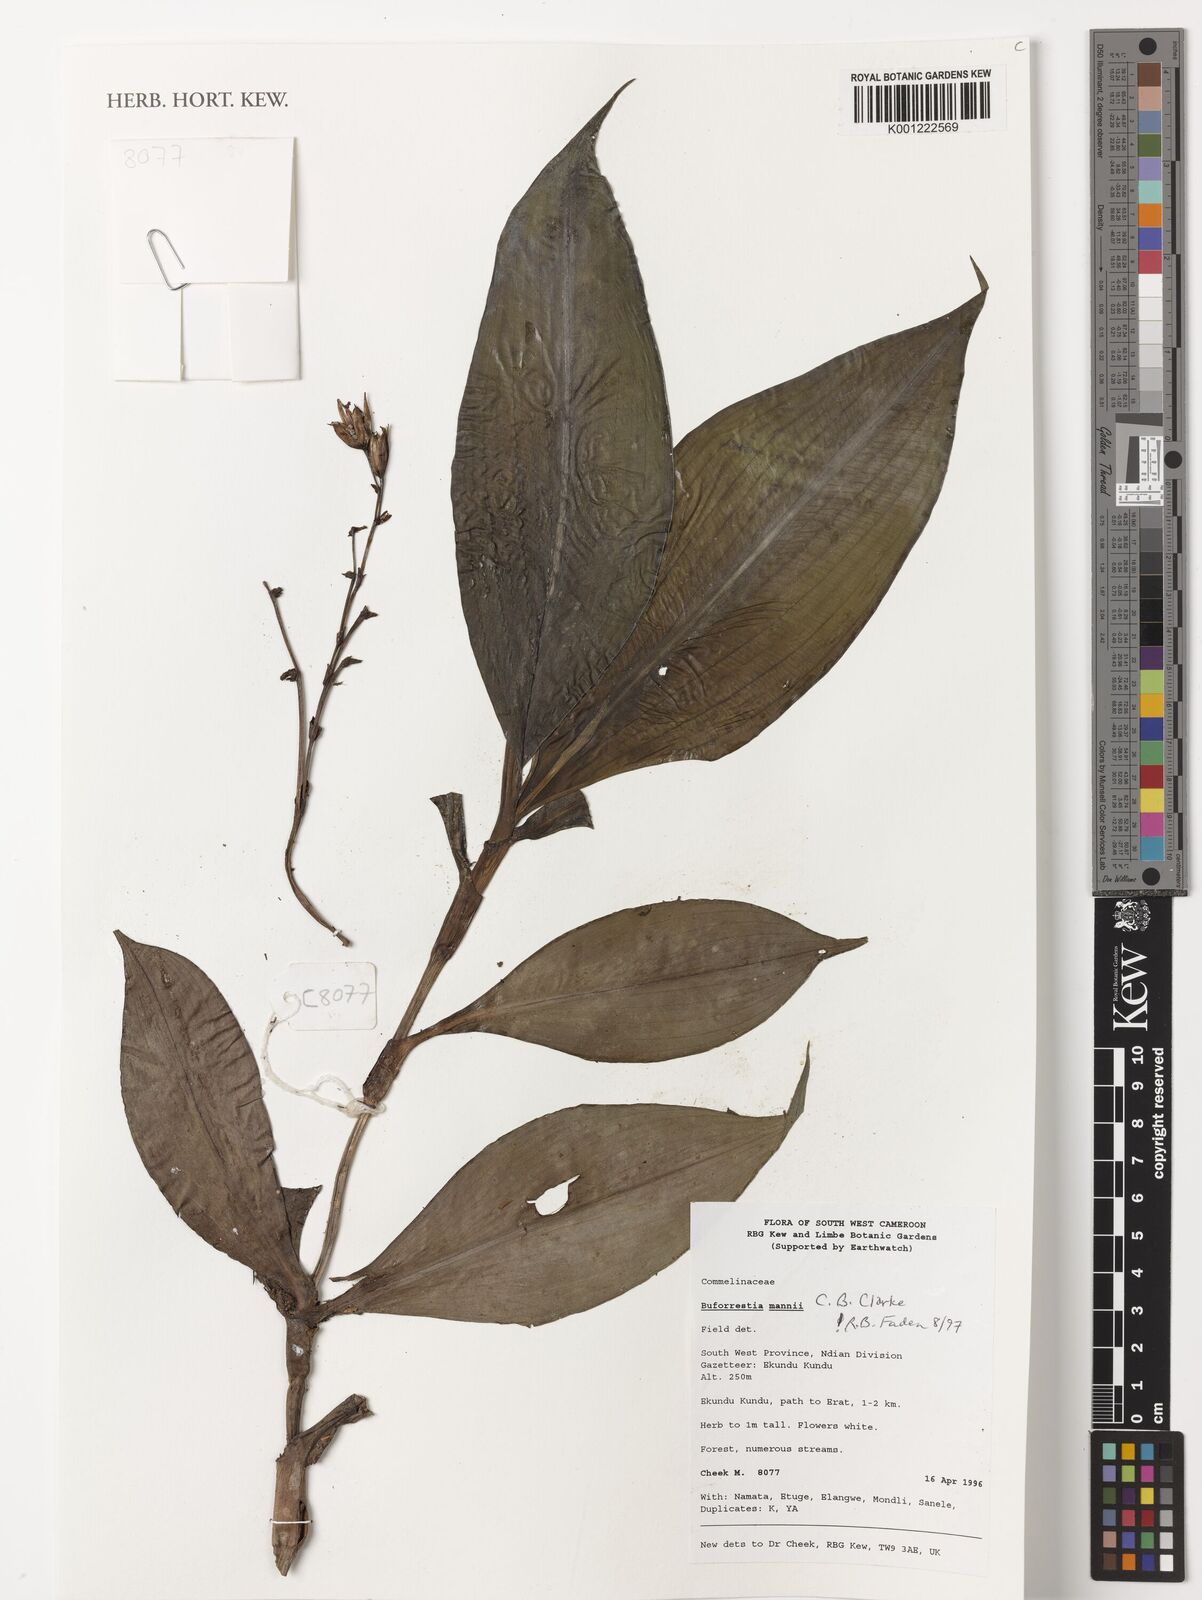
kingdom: Plantae
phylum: Tracheophyta
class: Liliopsida
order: Commelinales
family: Commelinaceae
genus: Buforrestia
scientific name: Buforrestia mannii
